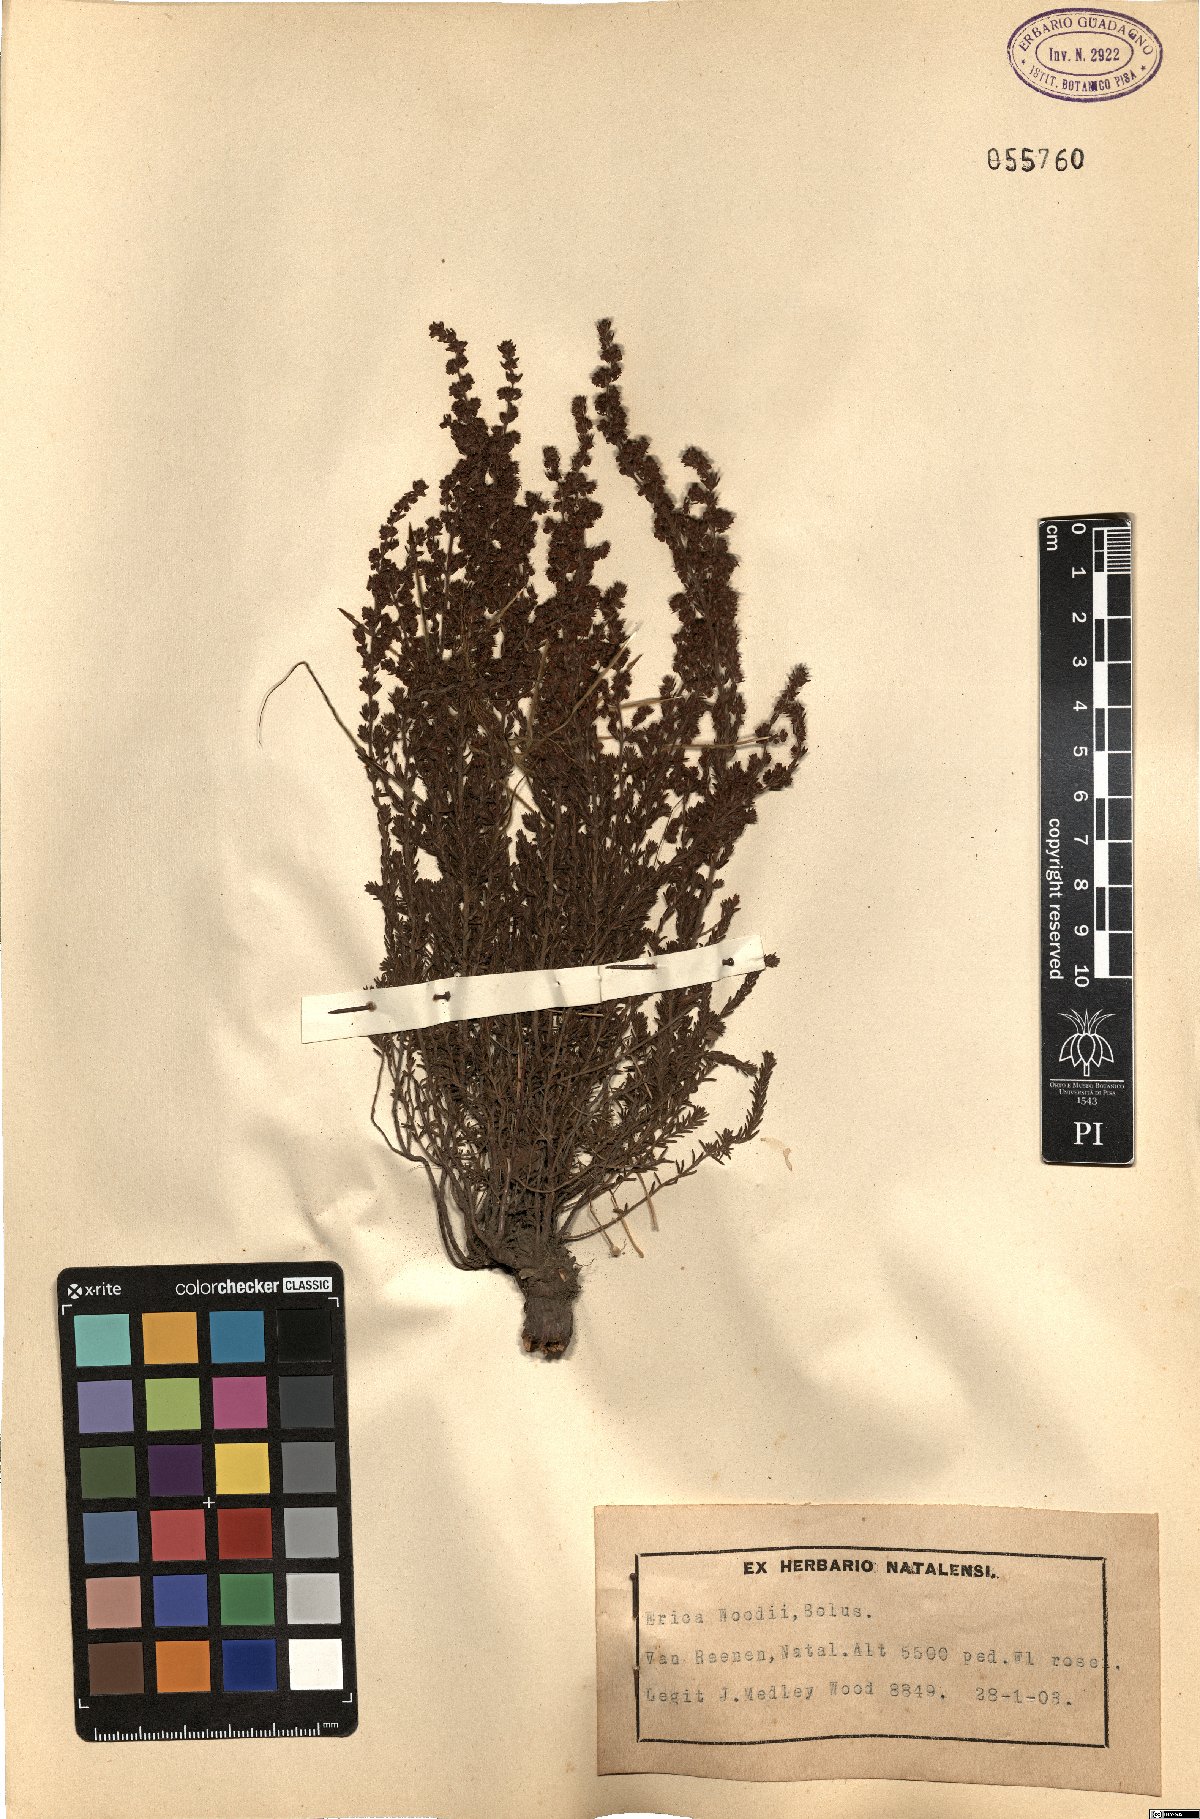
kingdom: Plantae
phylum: Tracheophyta
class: Magnoliopsida
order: Ericales
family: Ericaceae
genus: Erica
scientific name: Erica woodii
